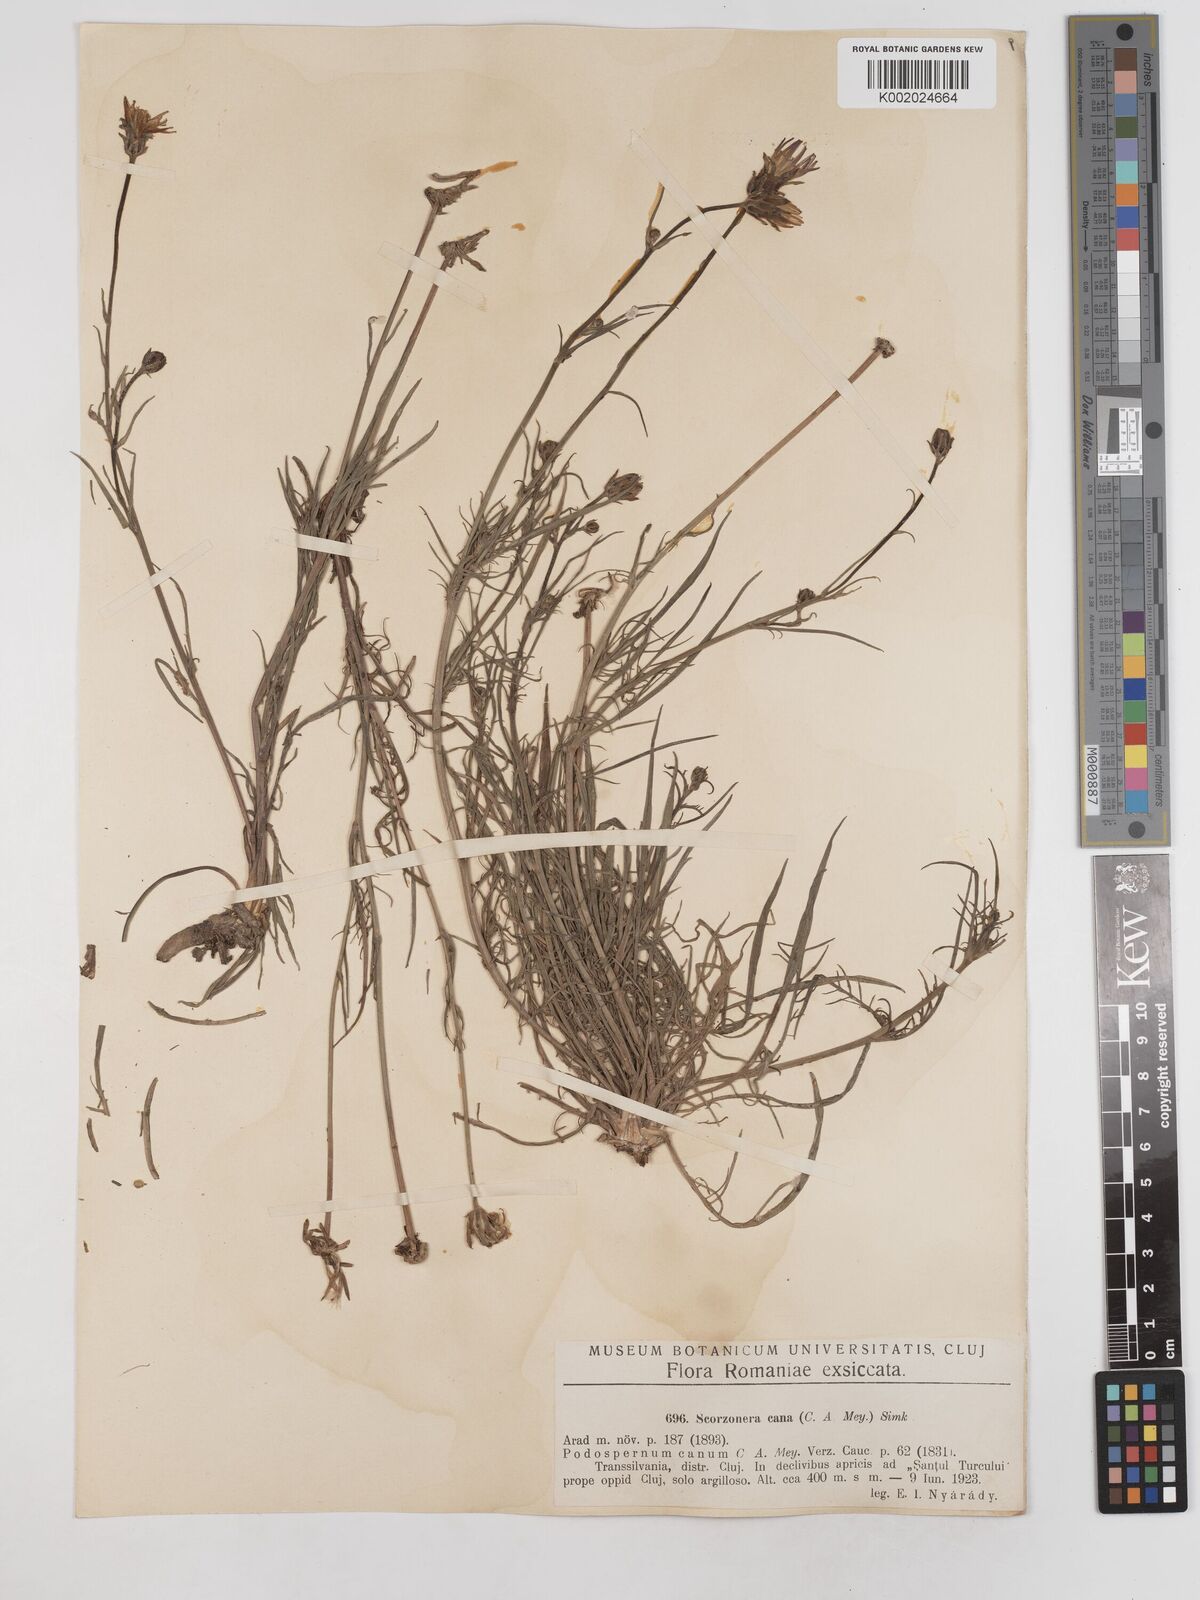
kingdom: Plantae
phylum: Tracheophyta
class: Magnoliopsida
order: Asterales
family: Asteraceae
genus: Scorzonera
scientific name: Scorzonera cana
